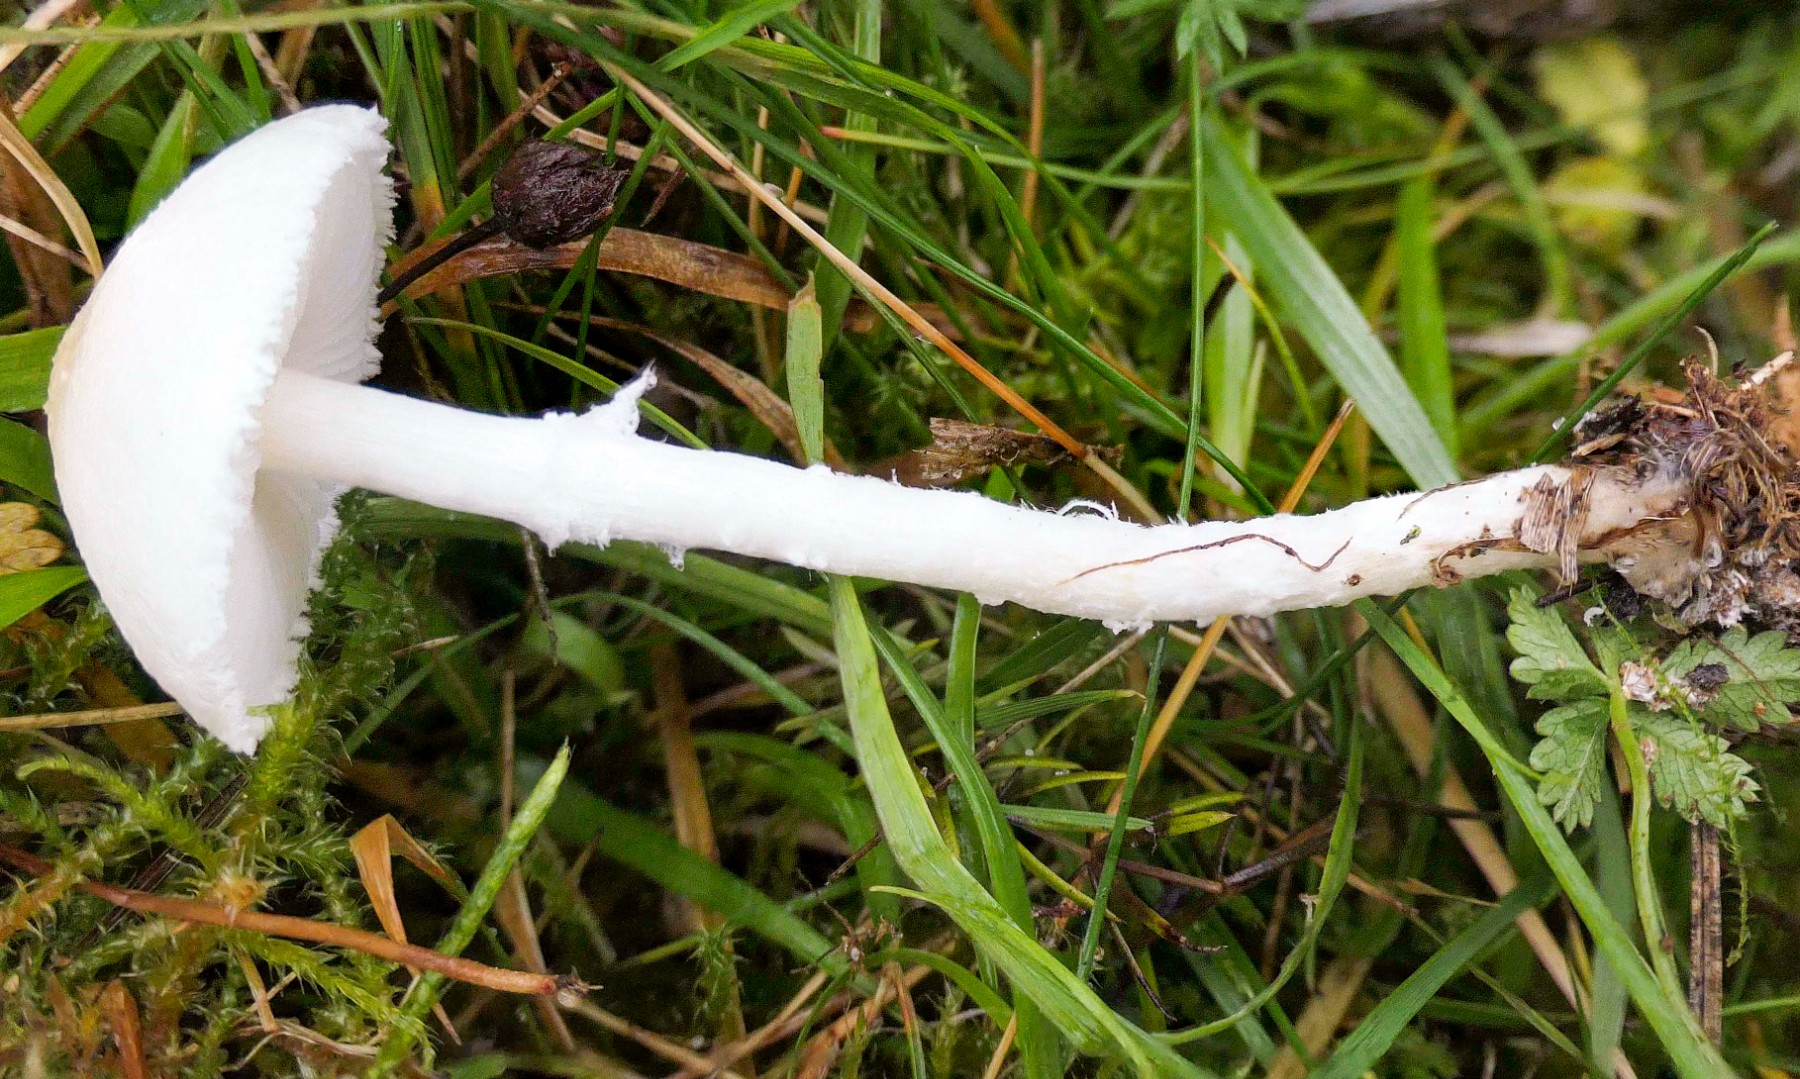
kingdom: Fungi
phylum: Basidiomycota
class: Agaricomycetes
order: Agaricales
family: Agaricaceae
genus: Lepiota
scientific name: Lepiota erminea
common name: hvid parasolhat
